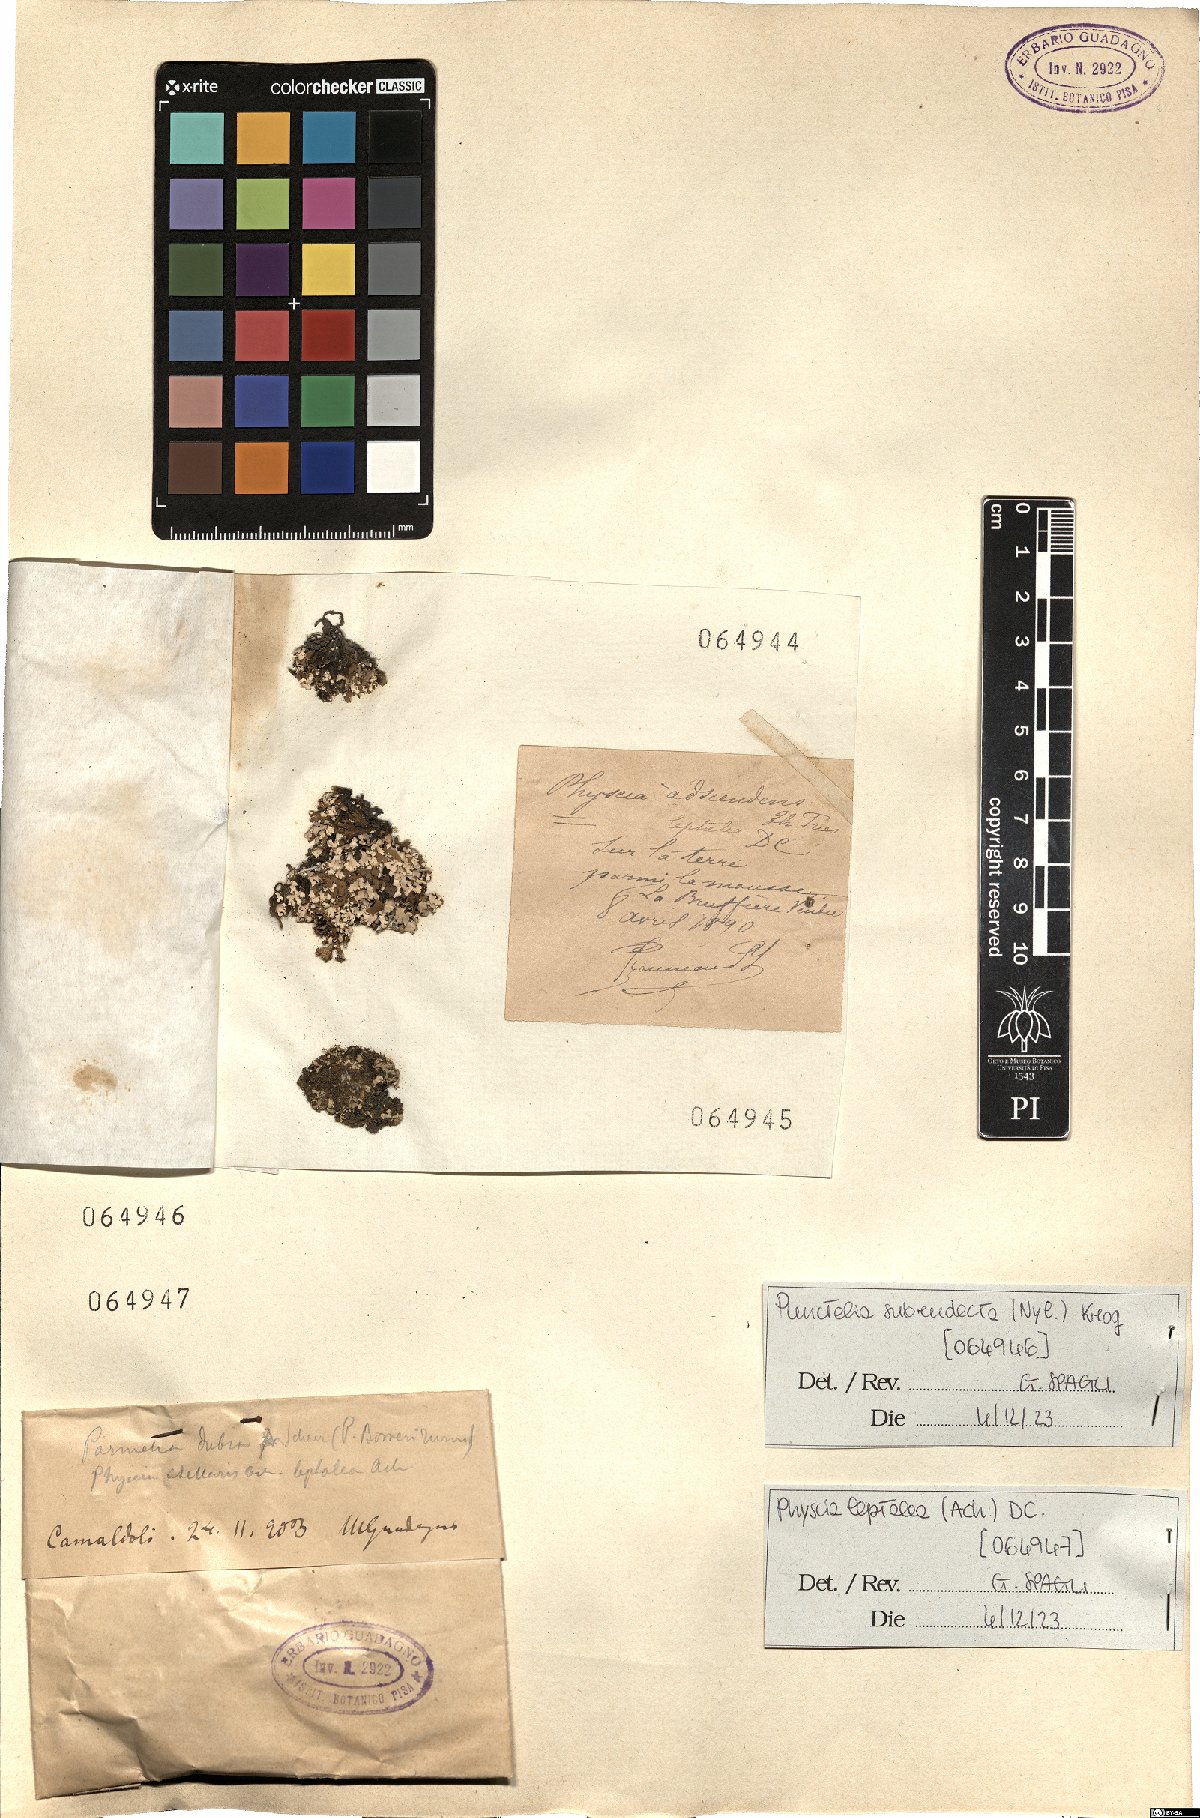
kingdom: Fungi
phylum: Ascomycota
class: Lecanoromycetes
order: Caliciales
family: Physciaceae
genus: Physcia
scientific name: Physcia leptalea
